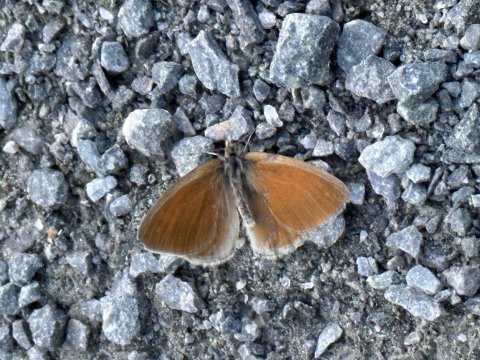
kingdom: Animalia
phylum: Arthropoda
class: Insecta
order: Lepidoptera
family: Nymphalidae
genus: Coenonympha
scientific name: Coenonympha tullia
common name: Large Heath
